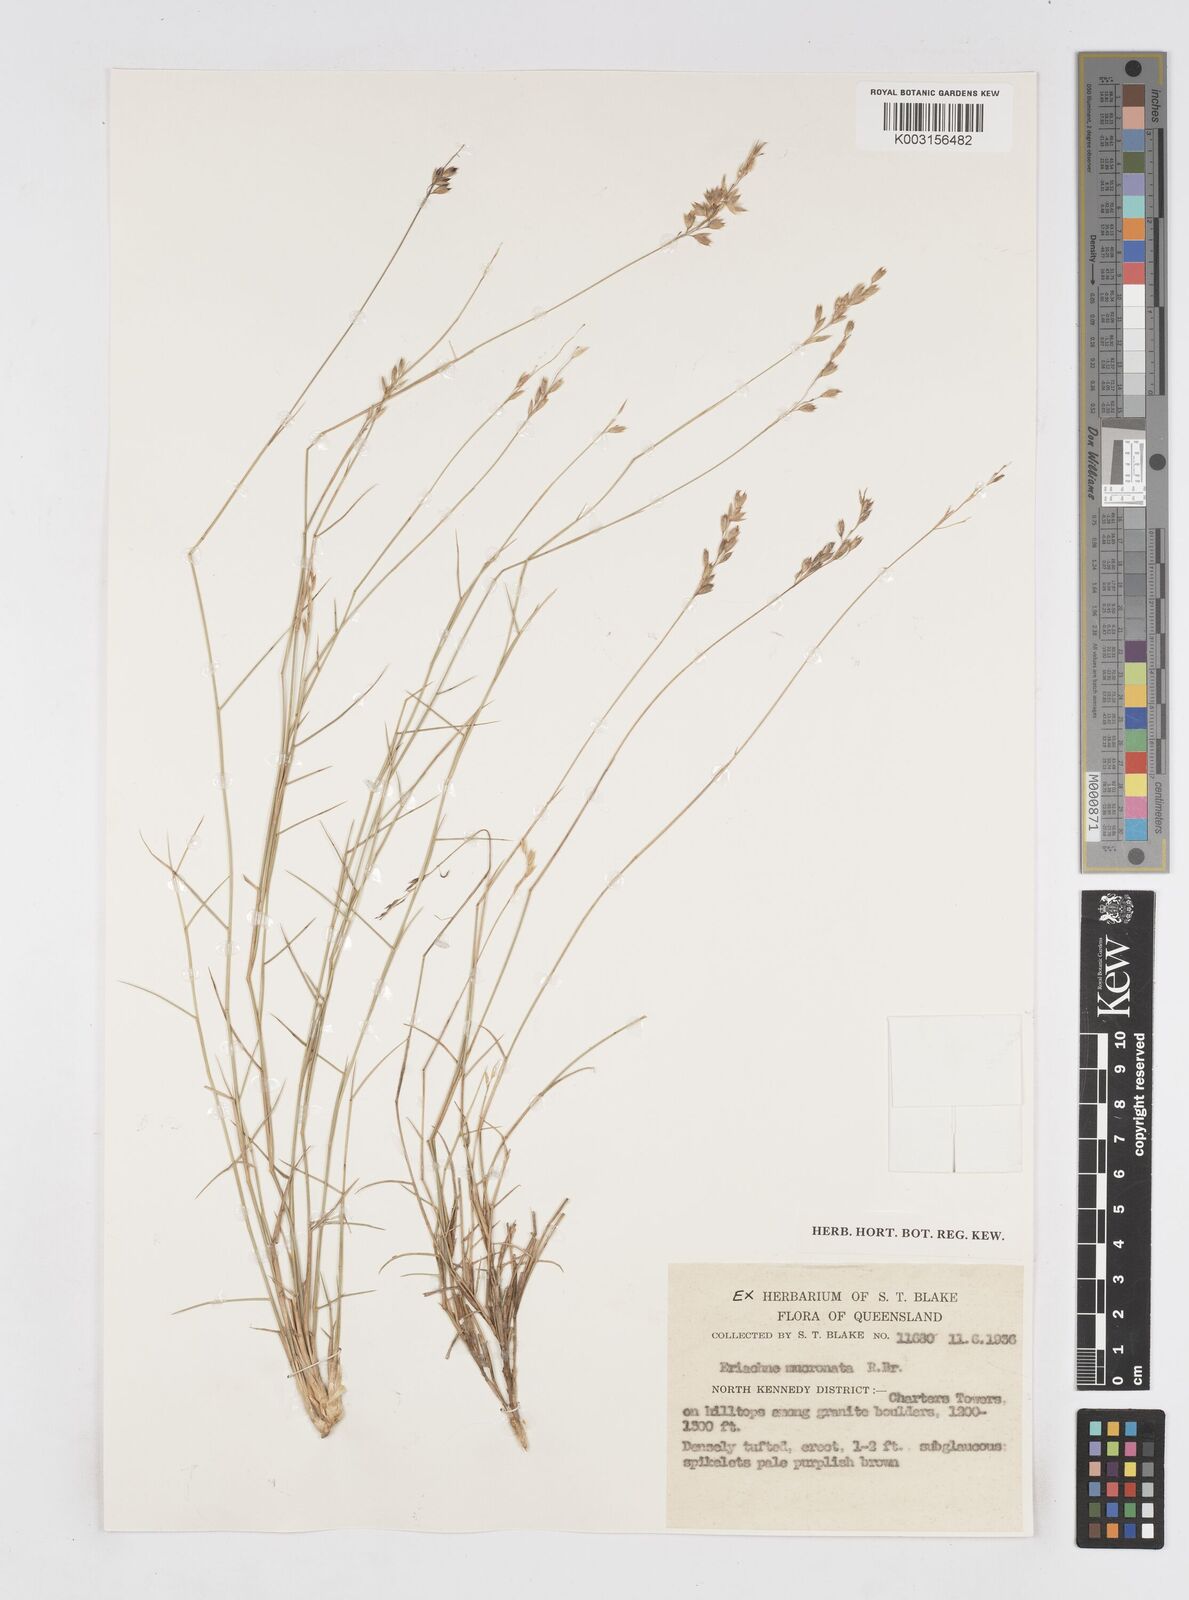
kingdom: Plantae
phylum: Tracheophyta
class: Liliopsida
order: Poales
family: Poaceae
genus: Eriachne
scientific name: Eriachne mucronata
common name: Mountain wanderrie grass
